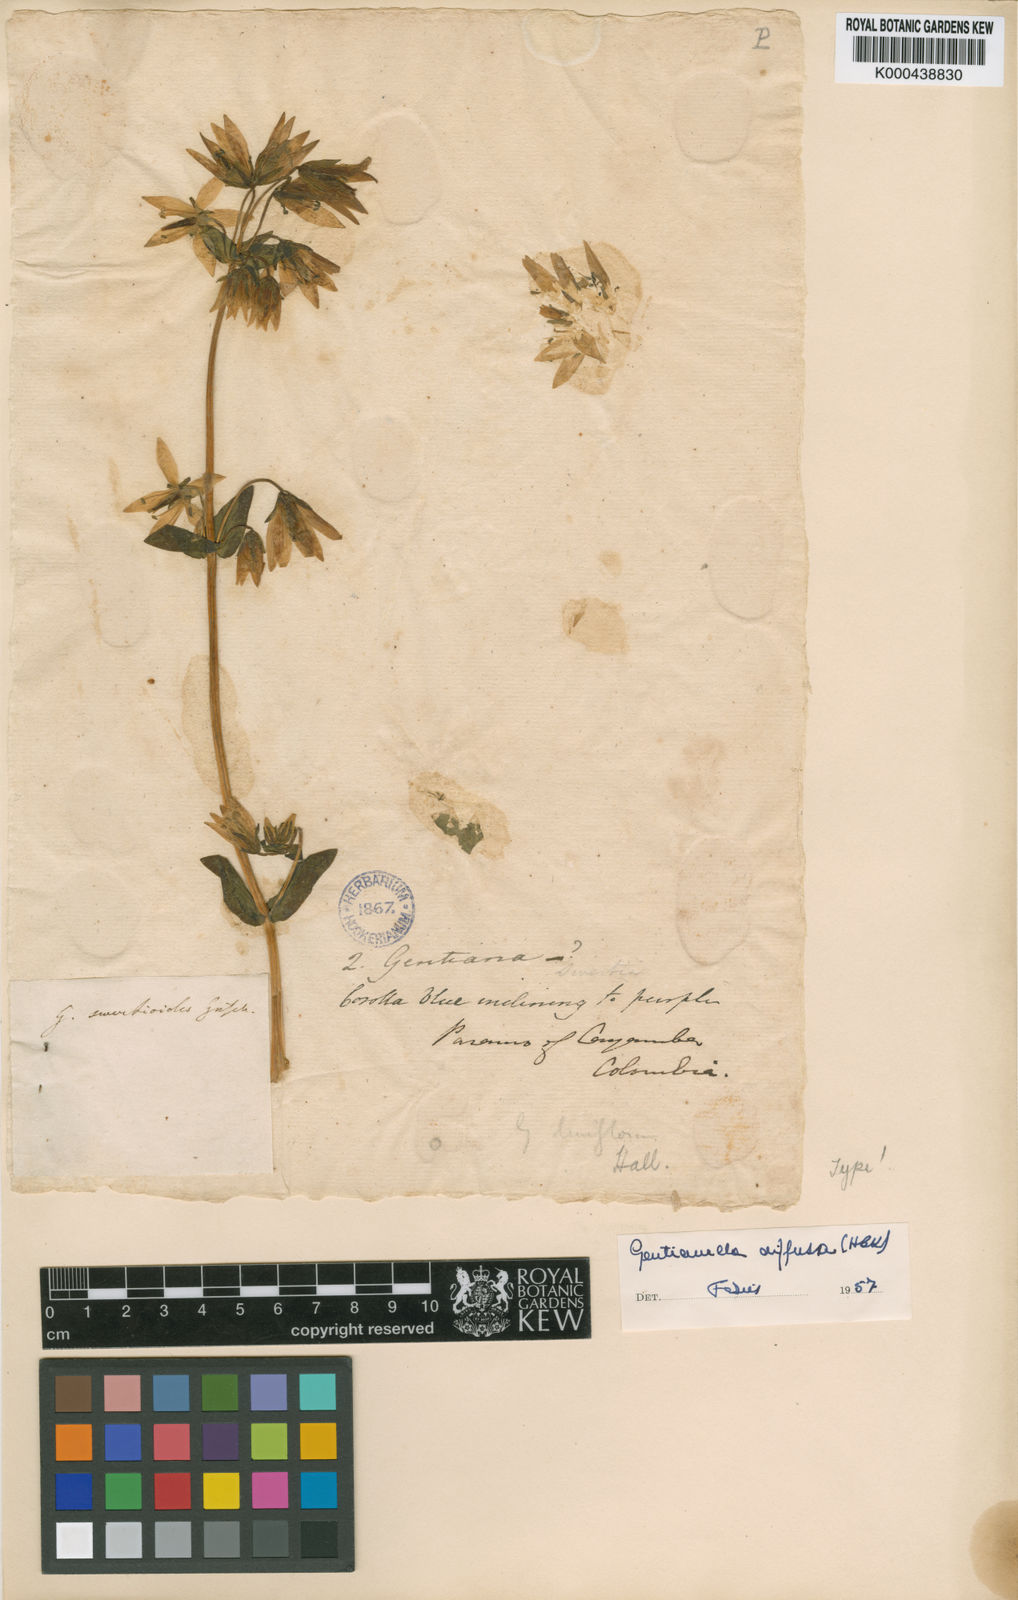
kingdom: Plantae
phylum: Tracheophyta
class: Magnoliopsida
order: Gentianales
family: Gentianaceae
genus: Gentianella
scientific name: Gentianella rapunculoides
